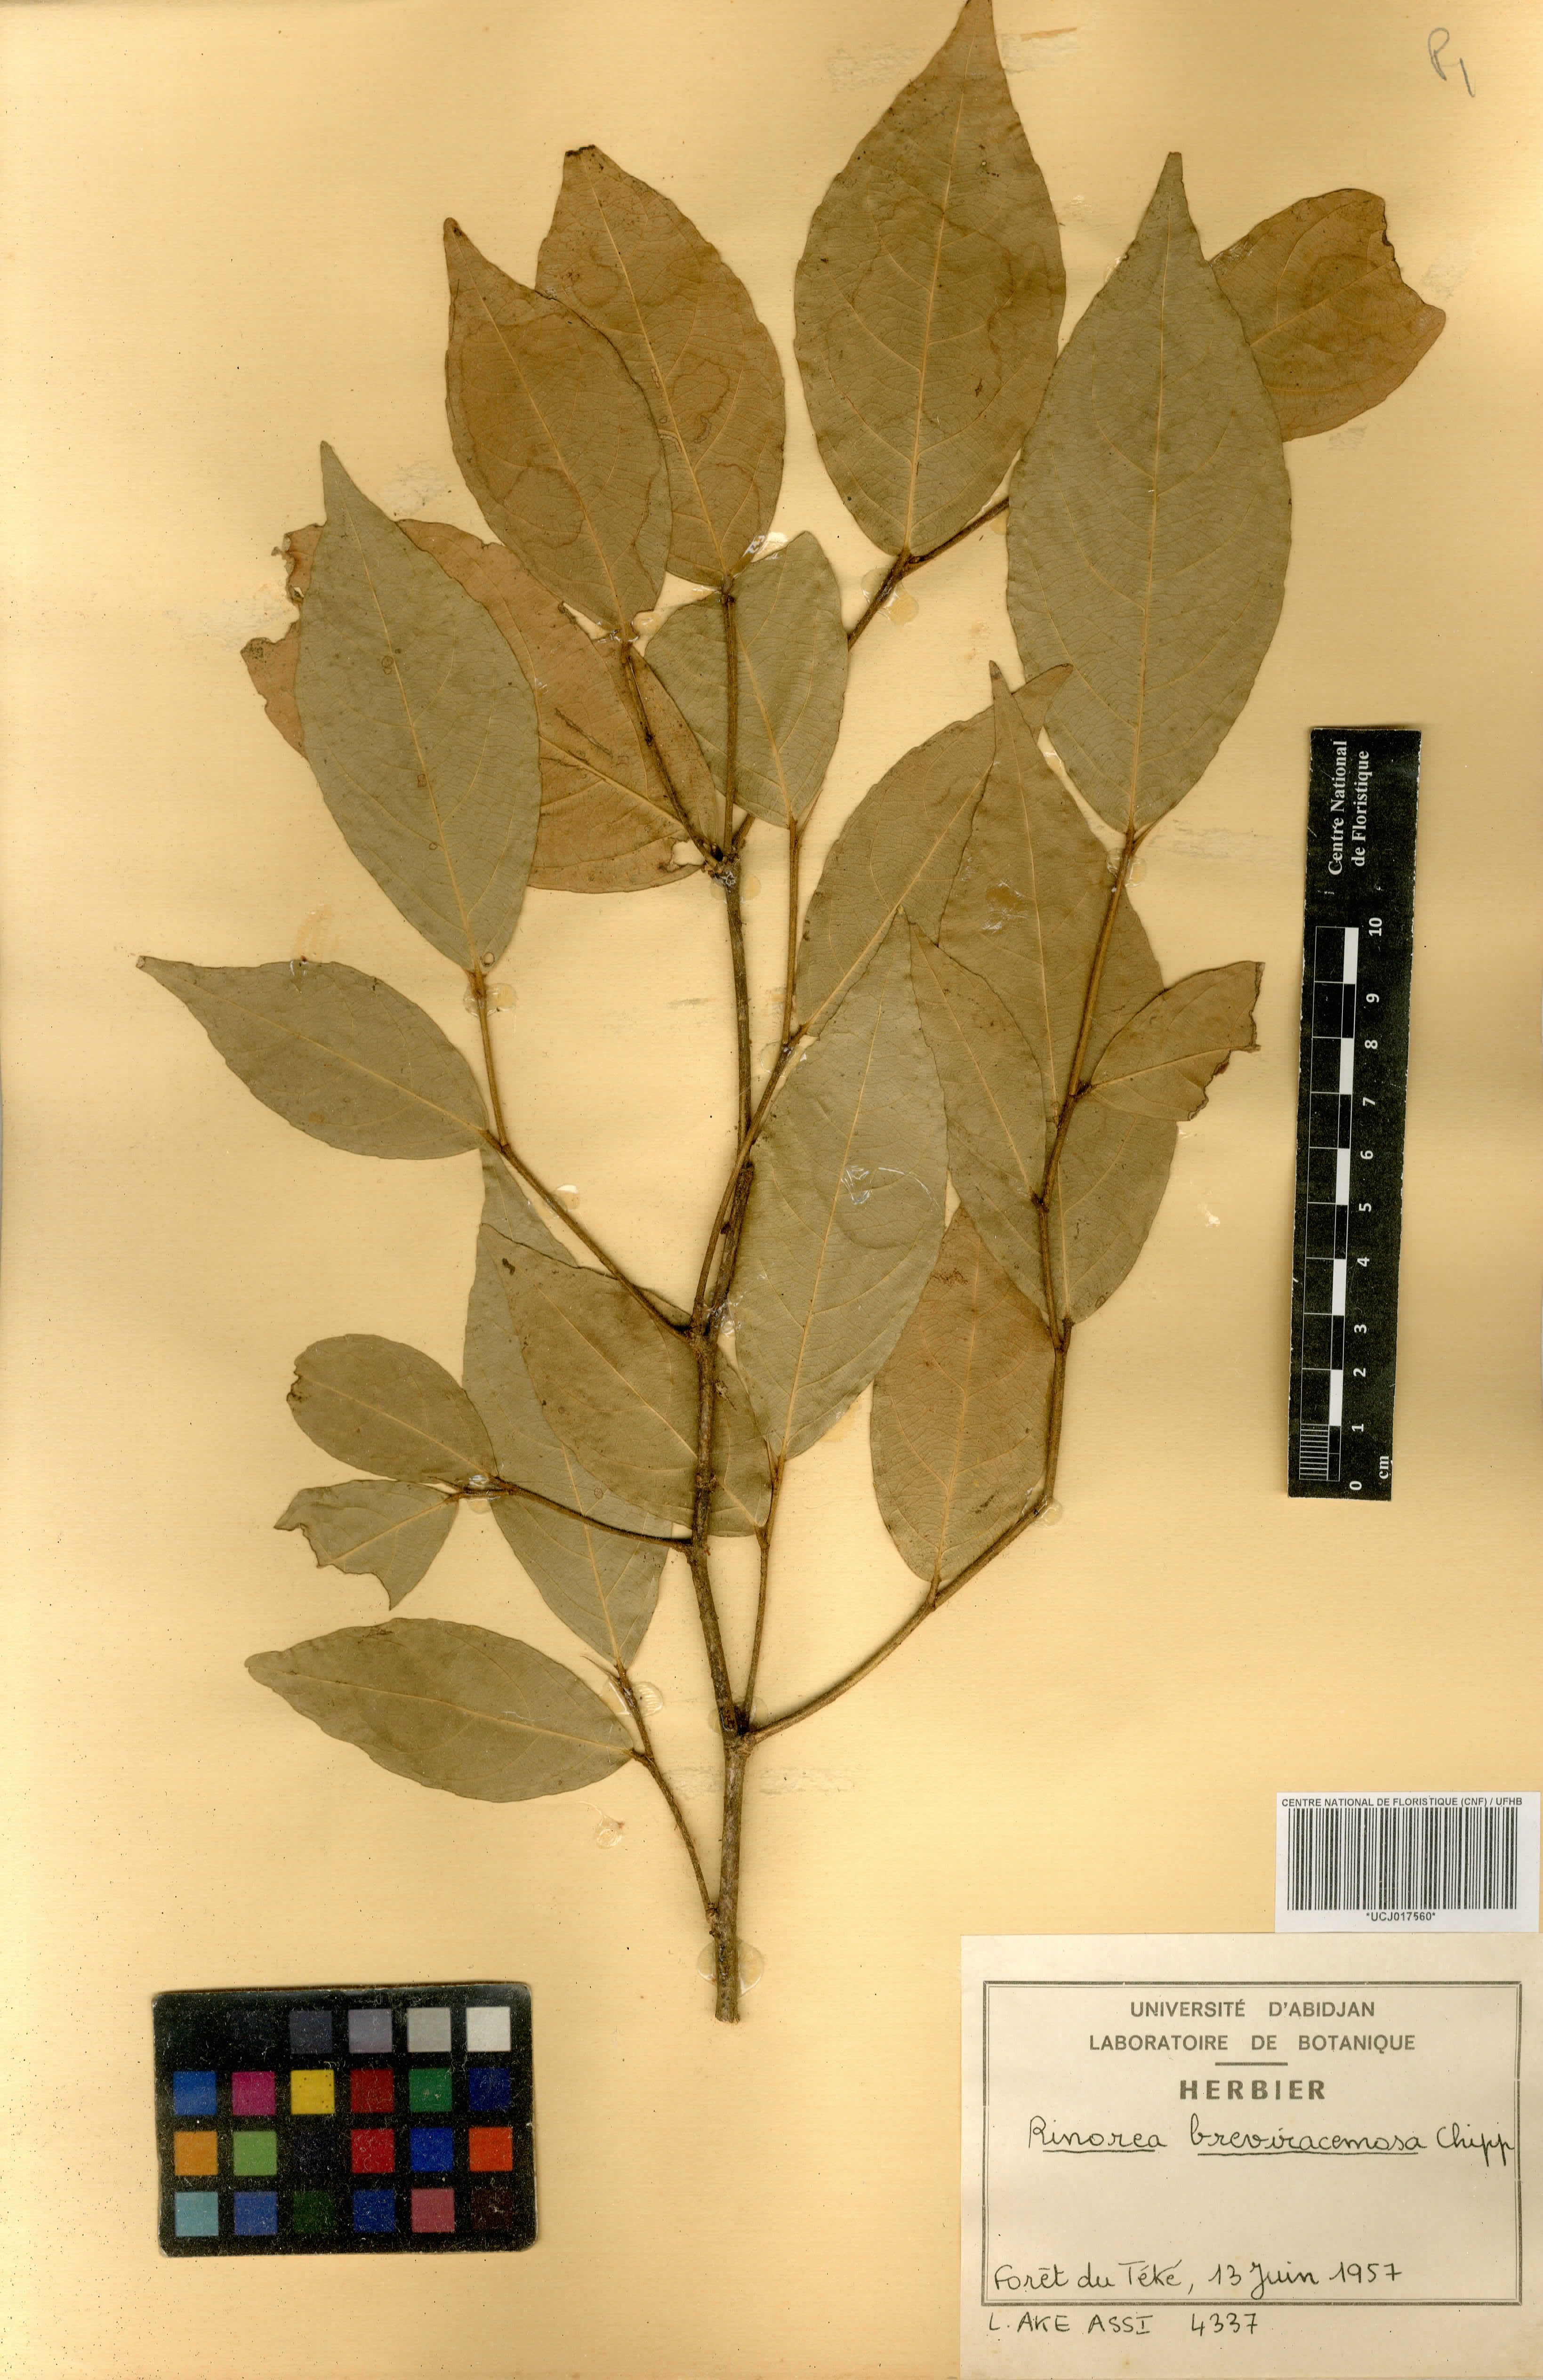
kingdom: Plantae
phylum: Tracheophyta
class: Magnoliopsida
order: Malpighiales
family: Violaceae
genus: Rinorea
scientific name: Rinorea breviracemosa
